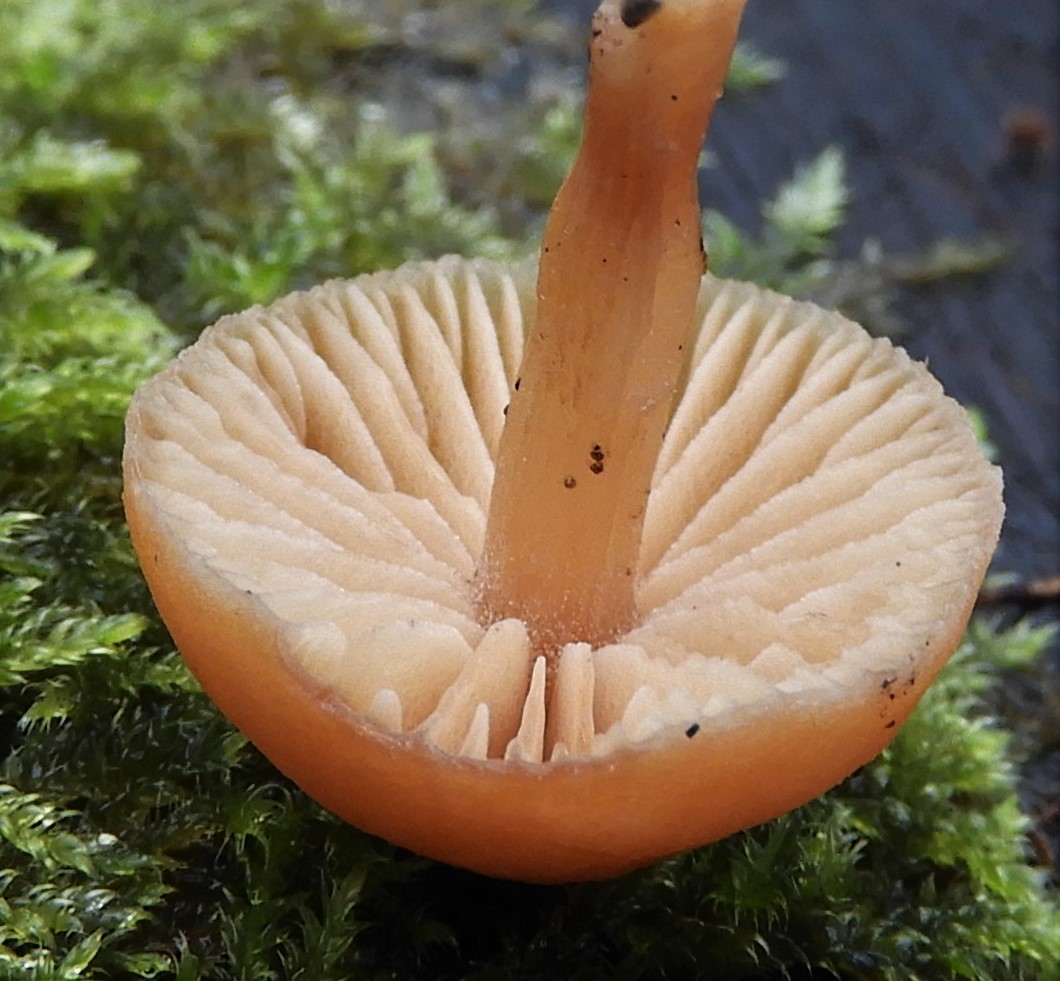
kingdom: Fungi
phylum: Basidiomycota
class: Agaricomycetes
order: Agaricales
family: Tubariaceae
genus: Tubaria
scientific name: Tubaria furfuracea
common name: kliddet fnughat
